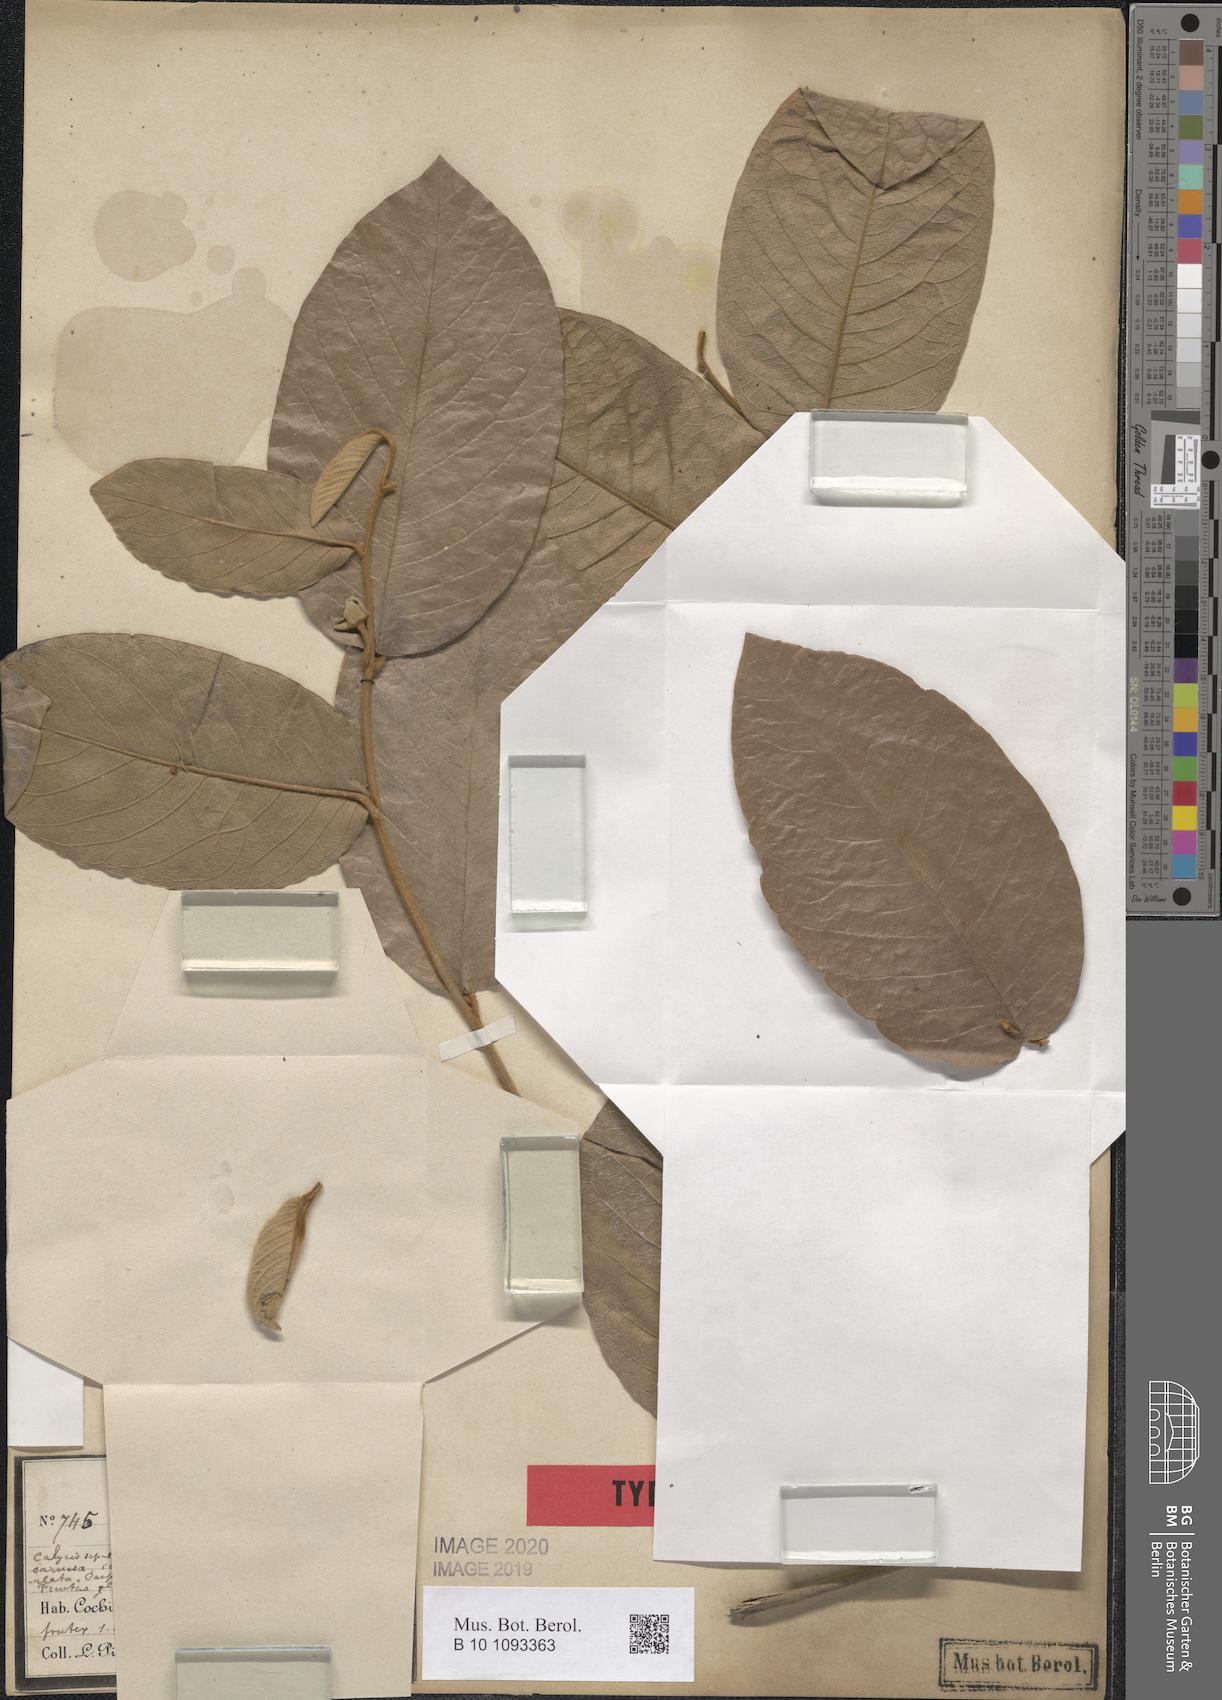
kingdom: Plantae
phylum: Tracheophyta
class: Magnoliopsida
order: Magnoliales
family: Annonaceae
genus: Uvaria
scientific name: Uvaria cherrevensis
